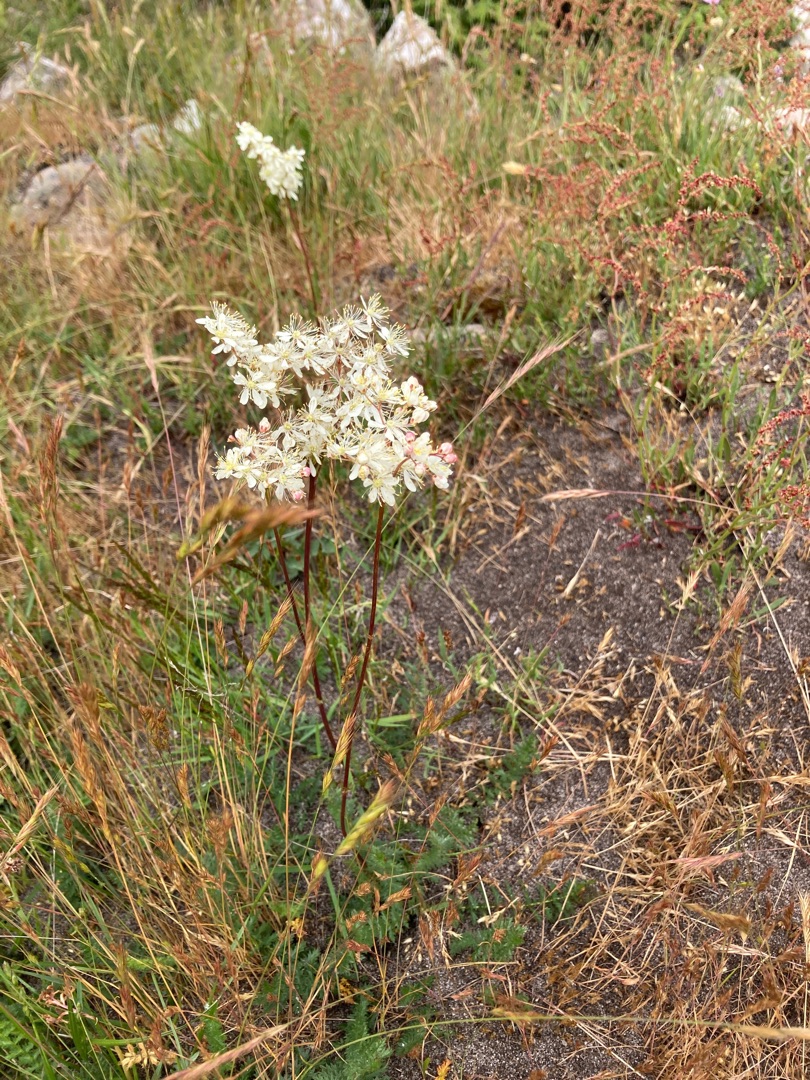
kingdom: Plantae
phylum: Tracheophyta
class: Magnoliopsida
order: Rosales
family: Rosaceae
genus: Filipendula
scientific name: Filipendula vulgaris
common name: Knoldet mjødurt
